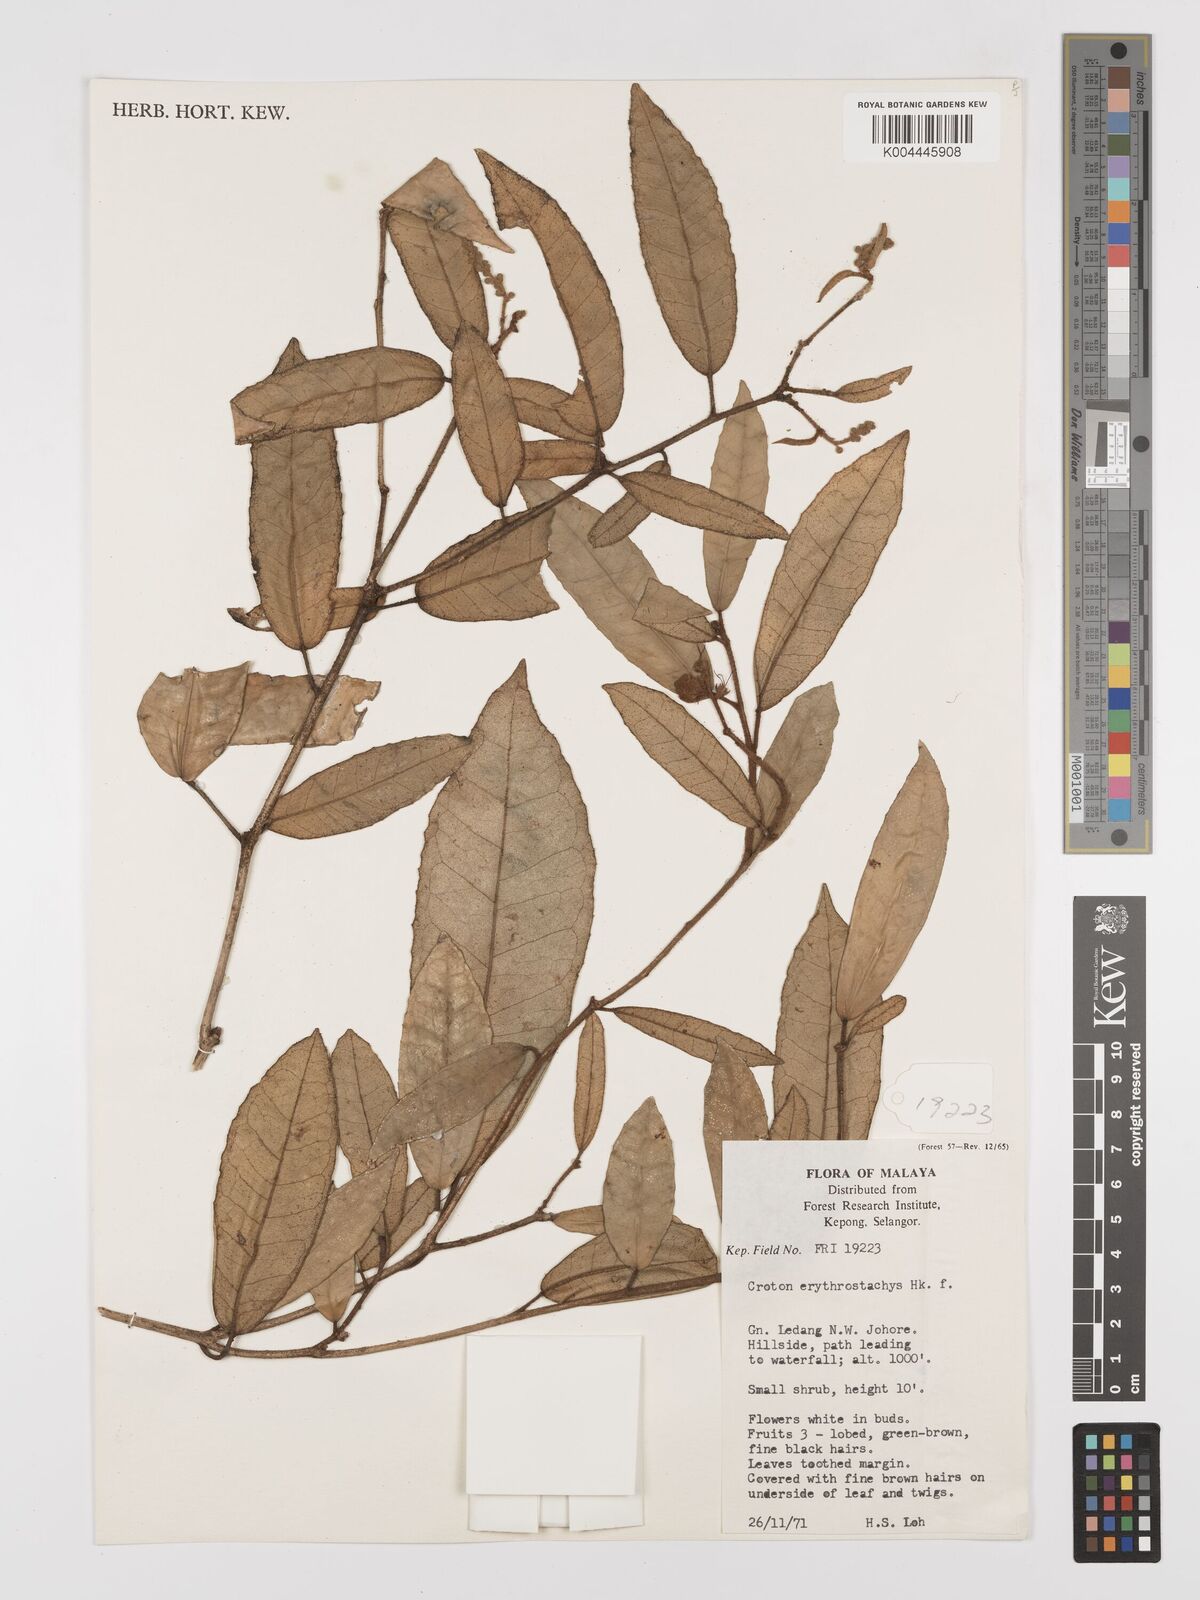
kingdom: Plantae
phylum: Tracheophyta
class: Magnoliopsida
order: Malpighiales
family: Euphorbiaceae
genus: Croton
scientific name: Croton erythrostachys
